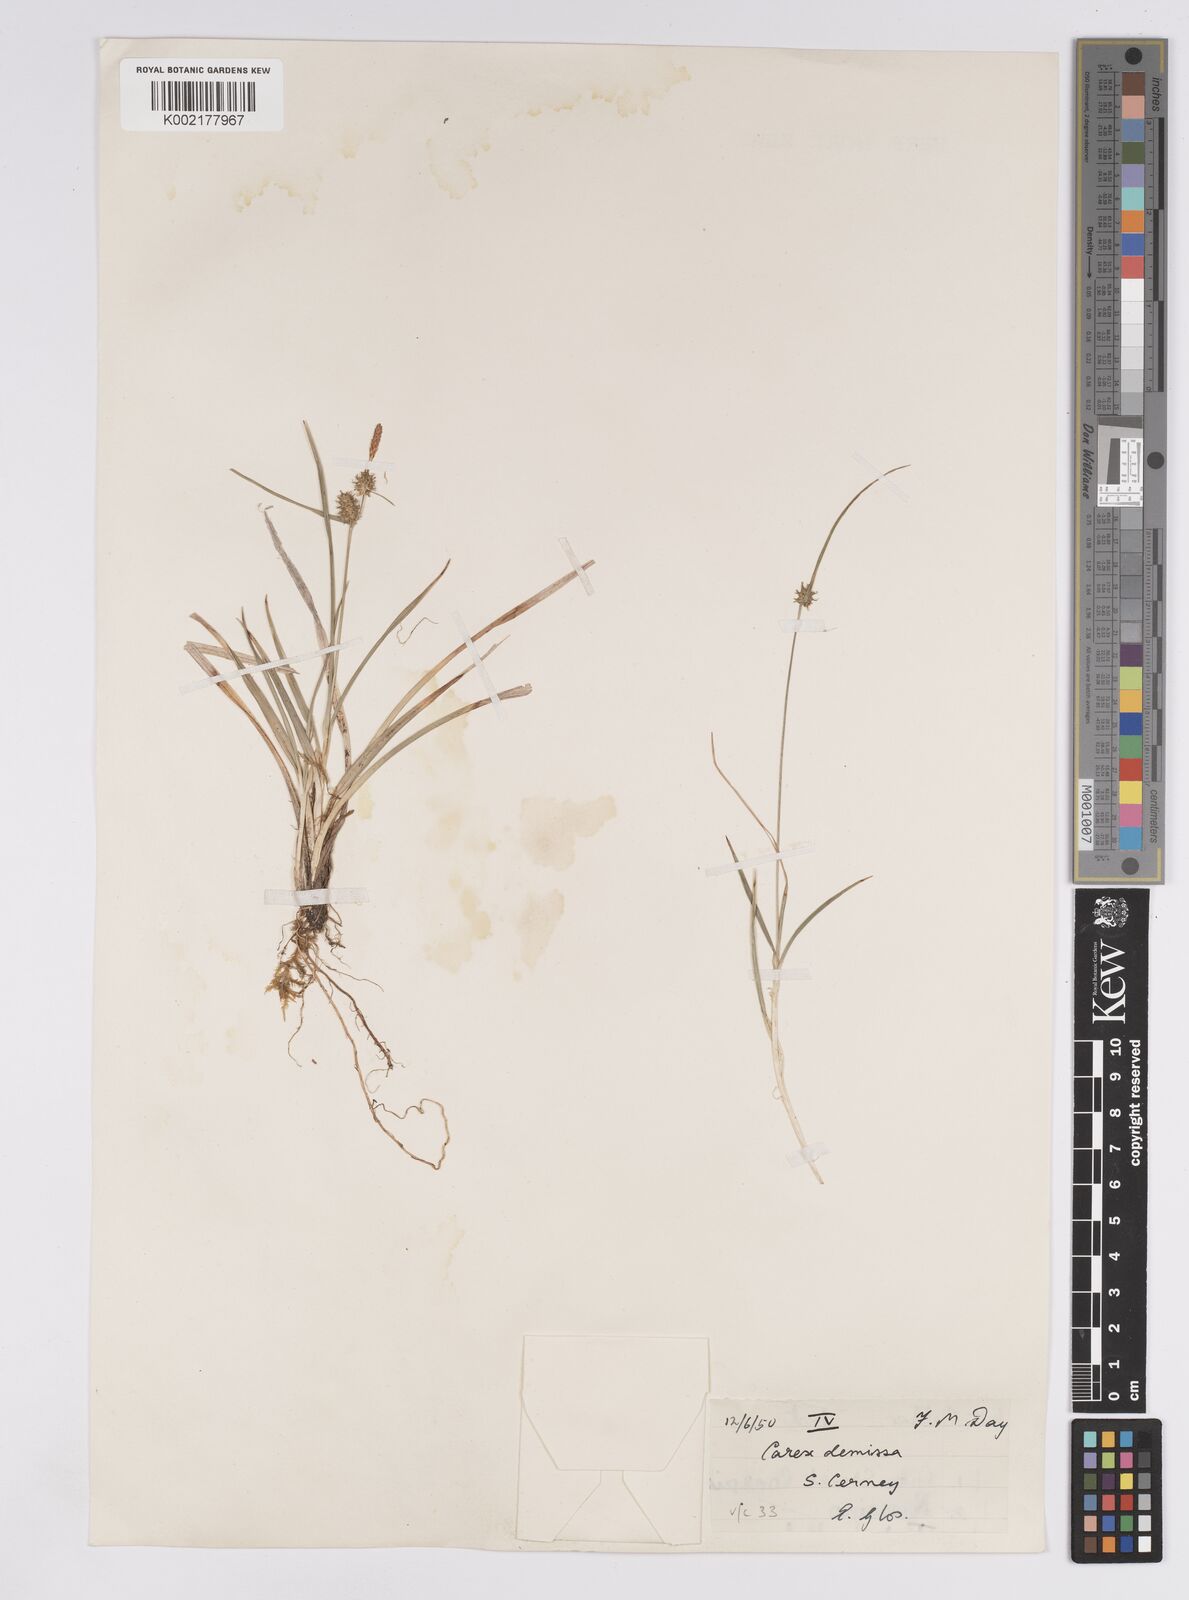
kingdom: Plantae
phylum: Tracheophyta
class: Liliopsida
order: Poales
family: Cyperaceae
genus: Carex
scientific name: Carex demissa
